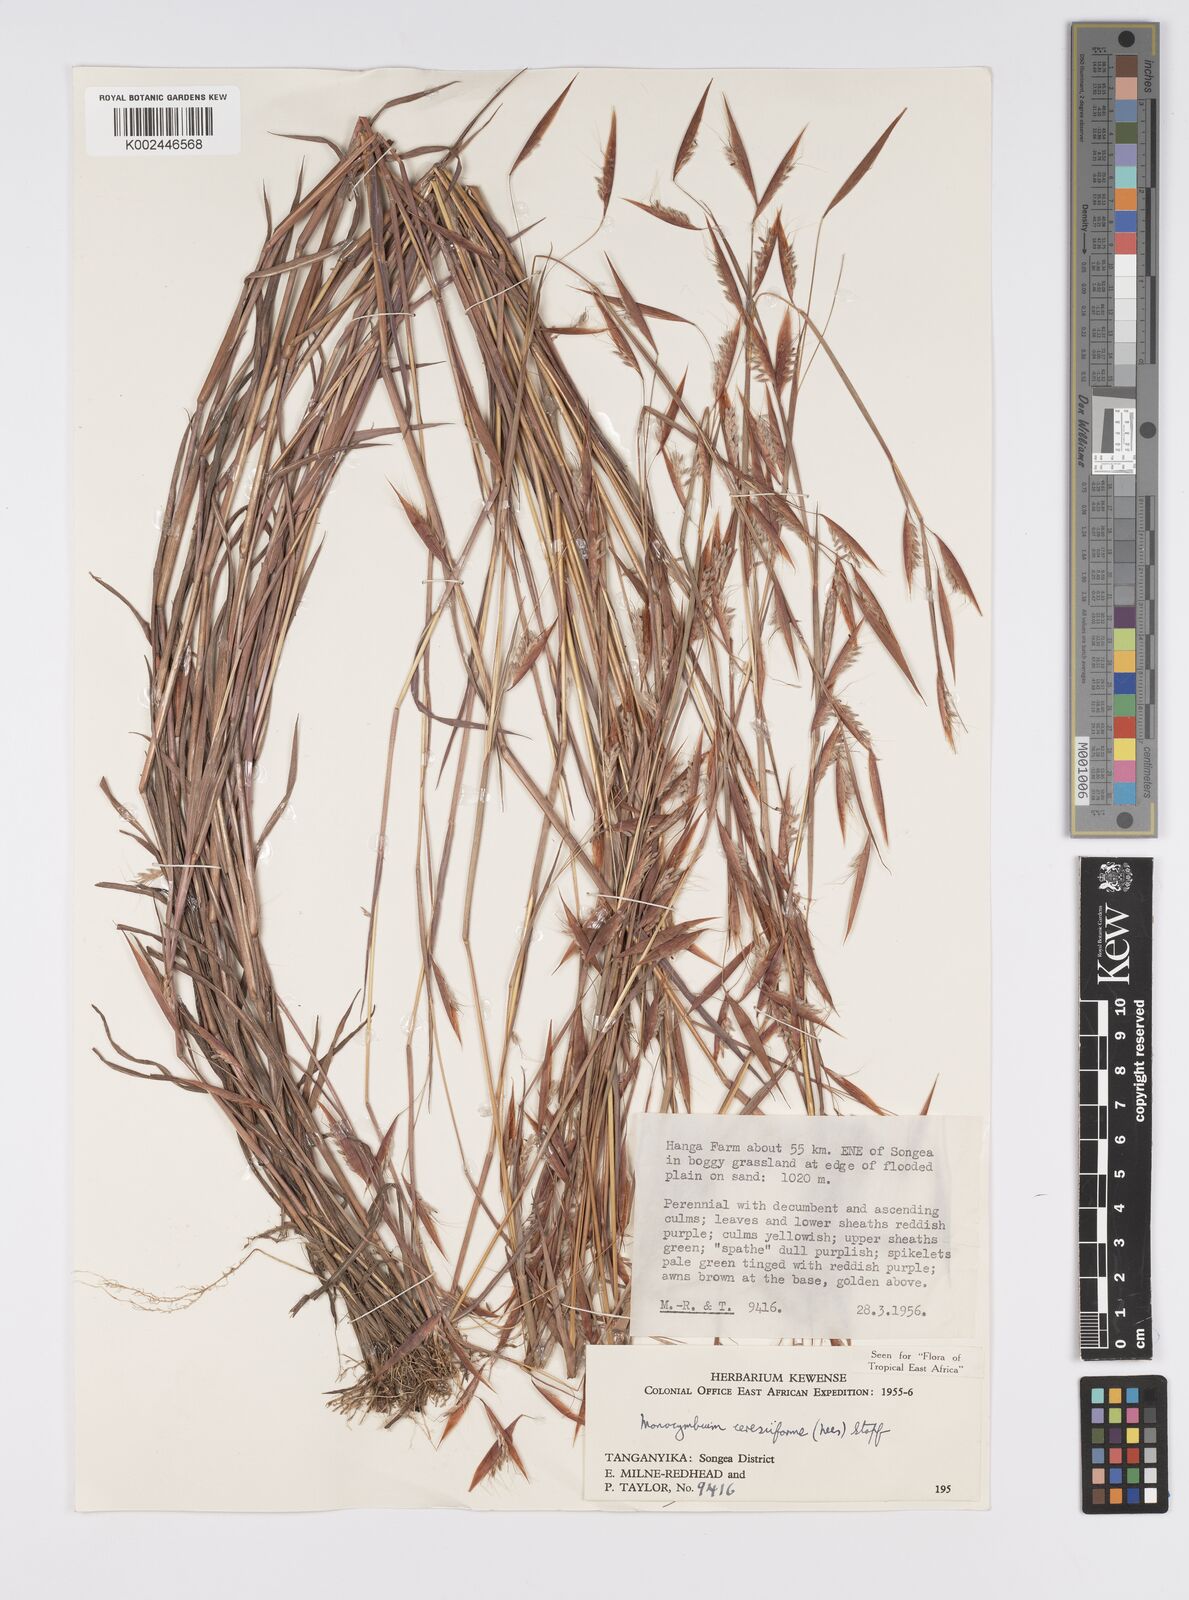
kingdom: Plantae
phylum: Tracheophyta
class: Liliopsida
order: Poales
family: Poaceae
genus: Monocymbium
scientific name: Monocymbium ceresiiforme
